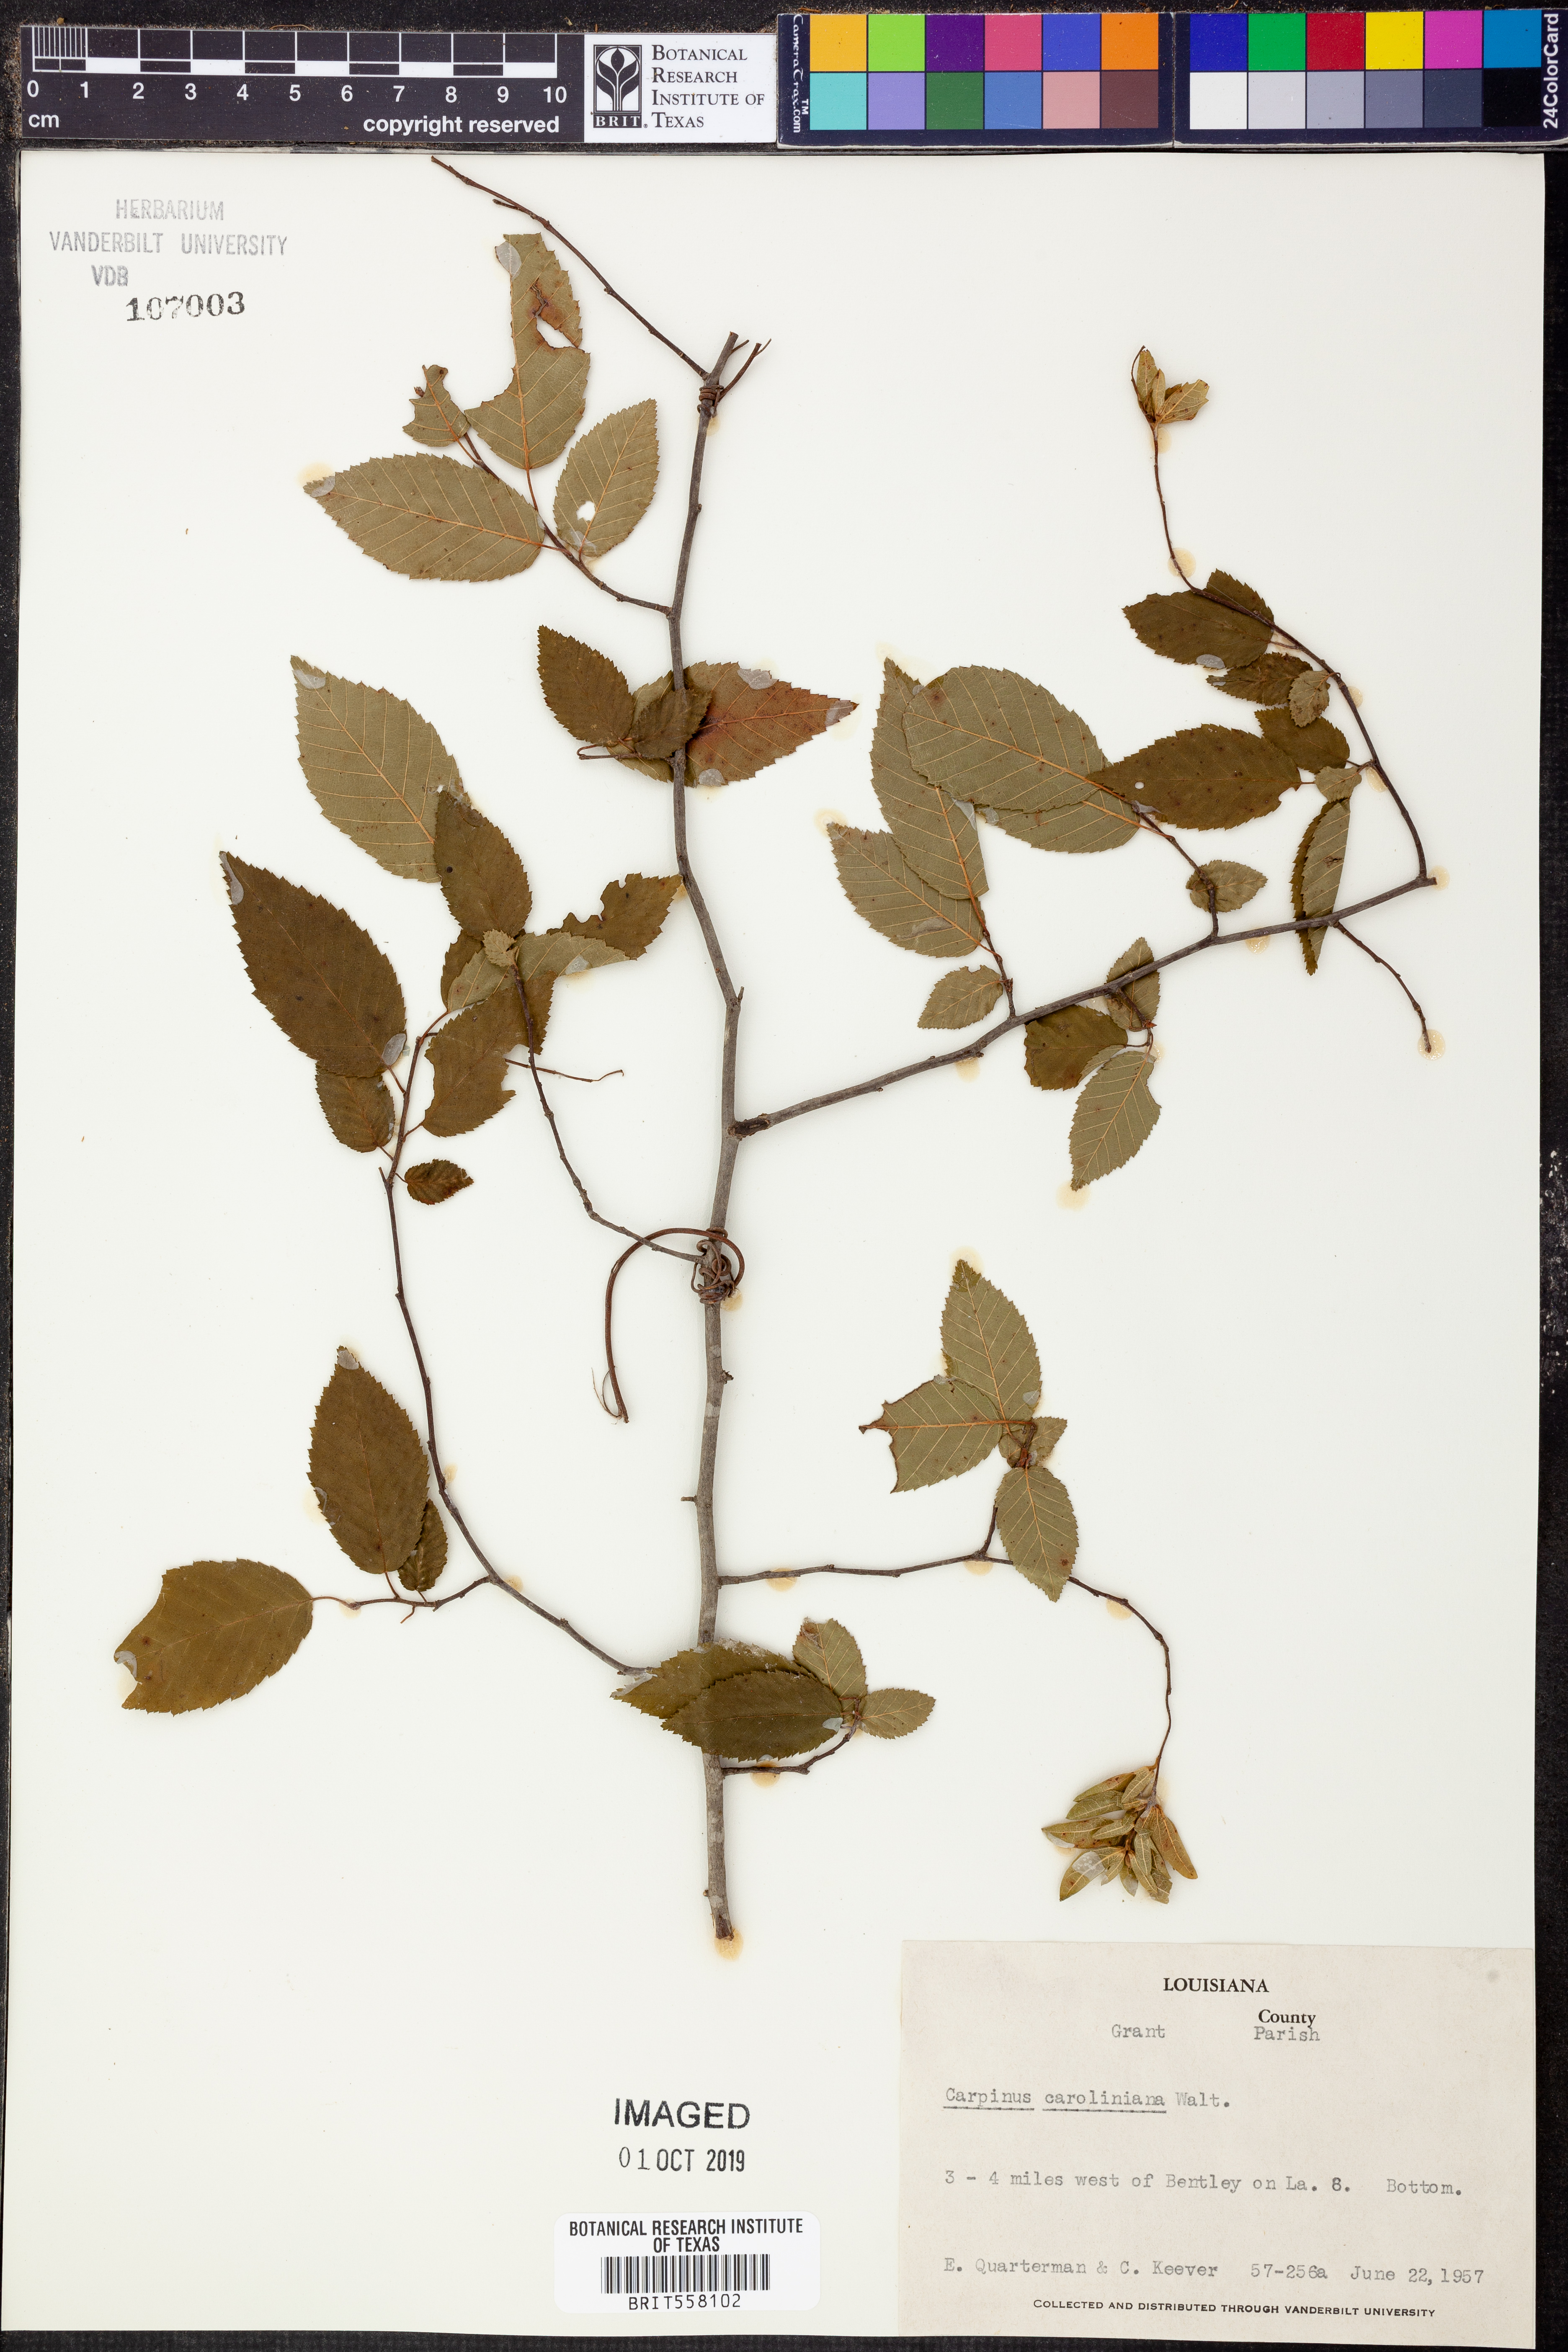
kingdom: Plantae
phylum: Tracheophyta
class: Magnoliopsida
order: Fagales
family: Betulaceae
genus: Carpinus
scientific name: Carpinus caroliniana
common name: American hornbeam
